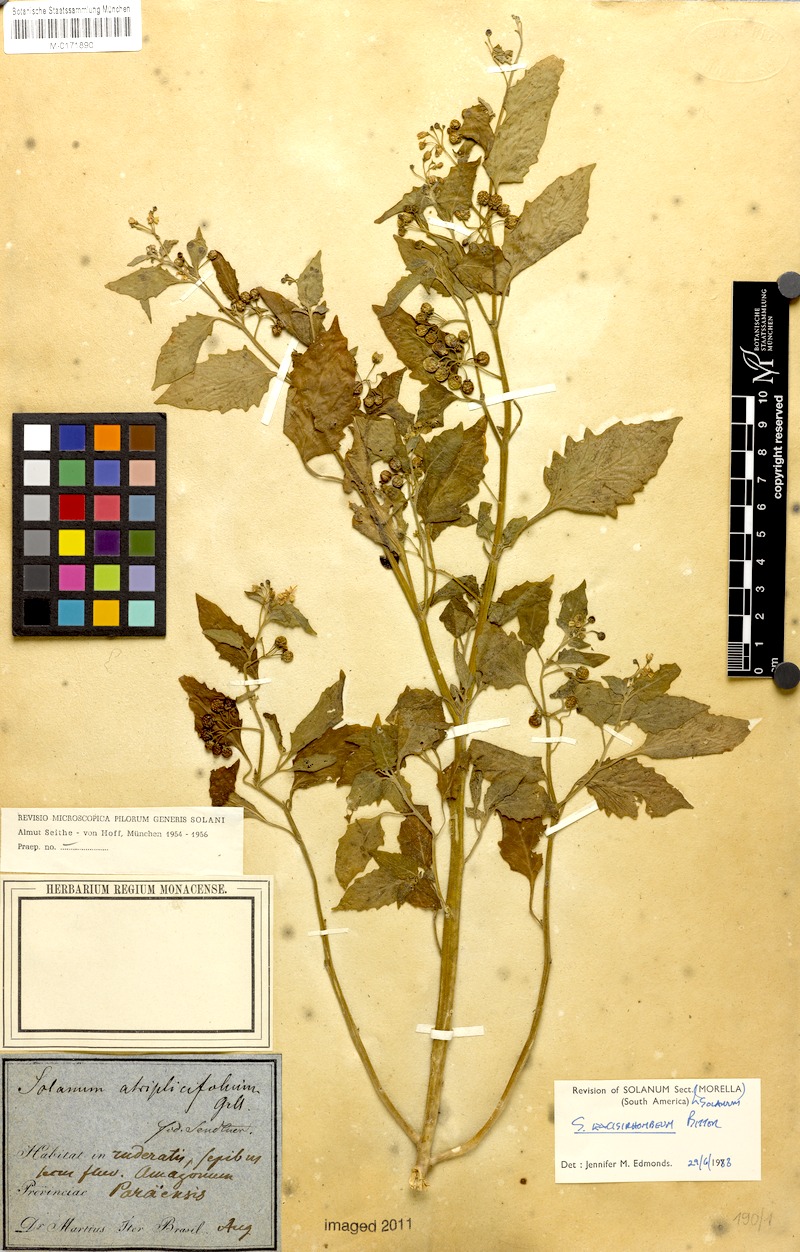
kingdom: Plantae
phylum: Tracheophyta
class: Magnoliopsida
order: Solanales
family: Solanaceae
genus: Solanum
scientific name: Solanum grandidentatum
